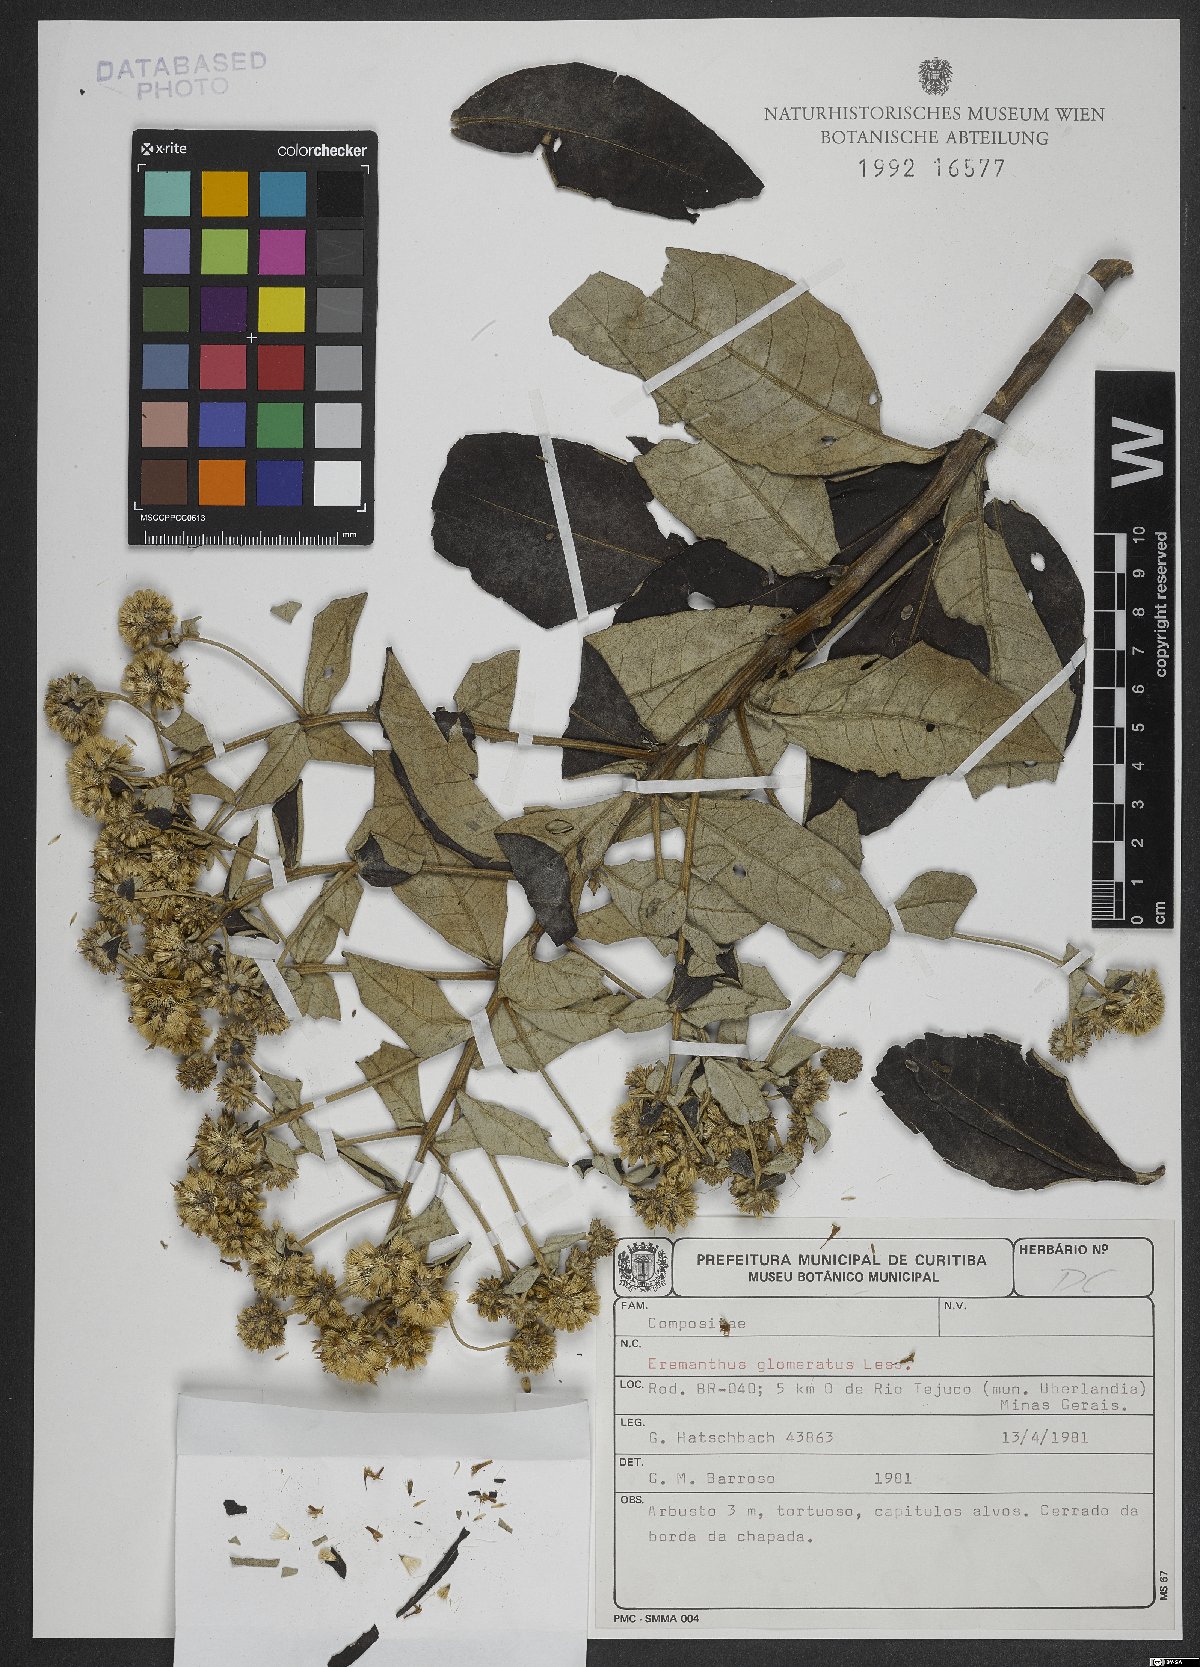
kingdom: Plantae
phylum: Tracheophyta
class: Magnoliopsida
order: Asterales
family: Asteraceae
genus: Cronquistianthus
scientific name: Cronquistianthus glomeratus
